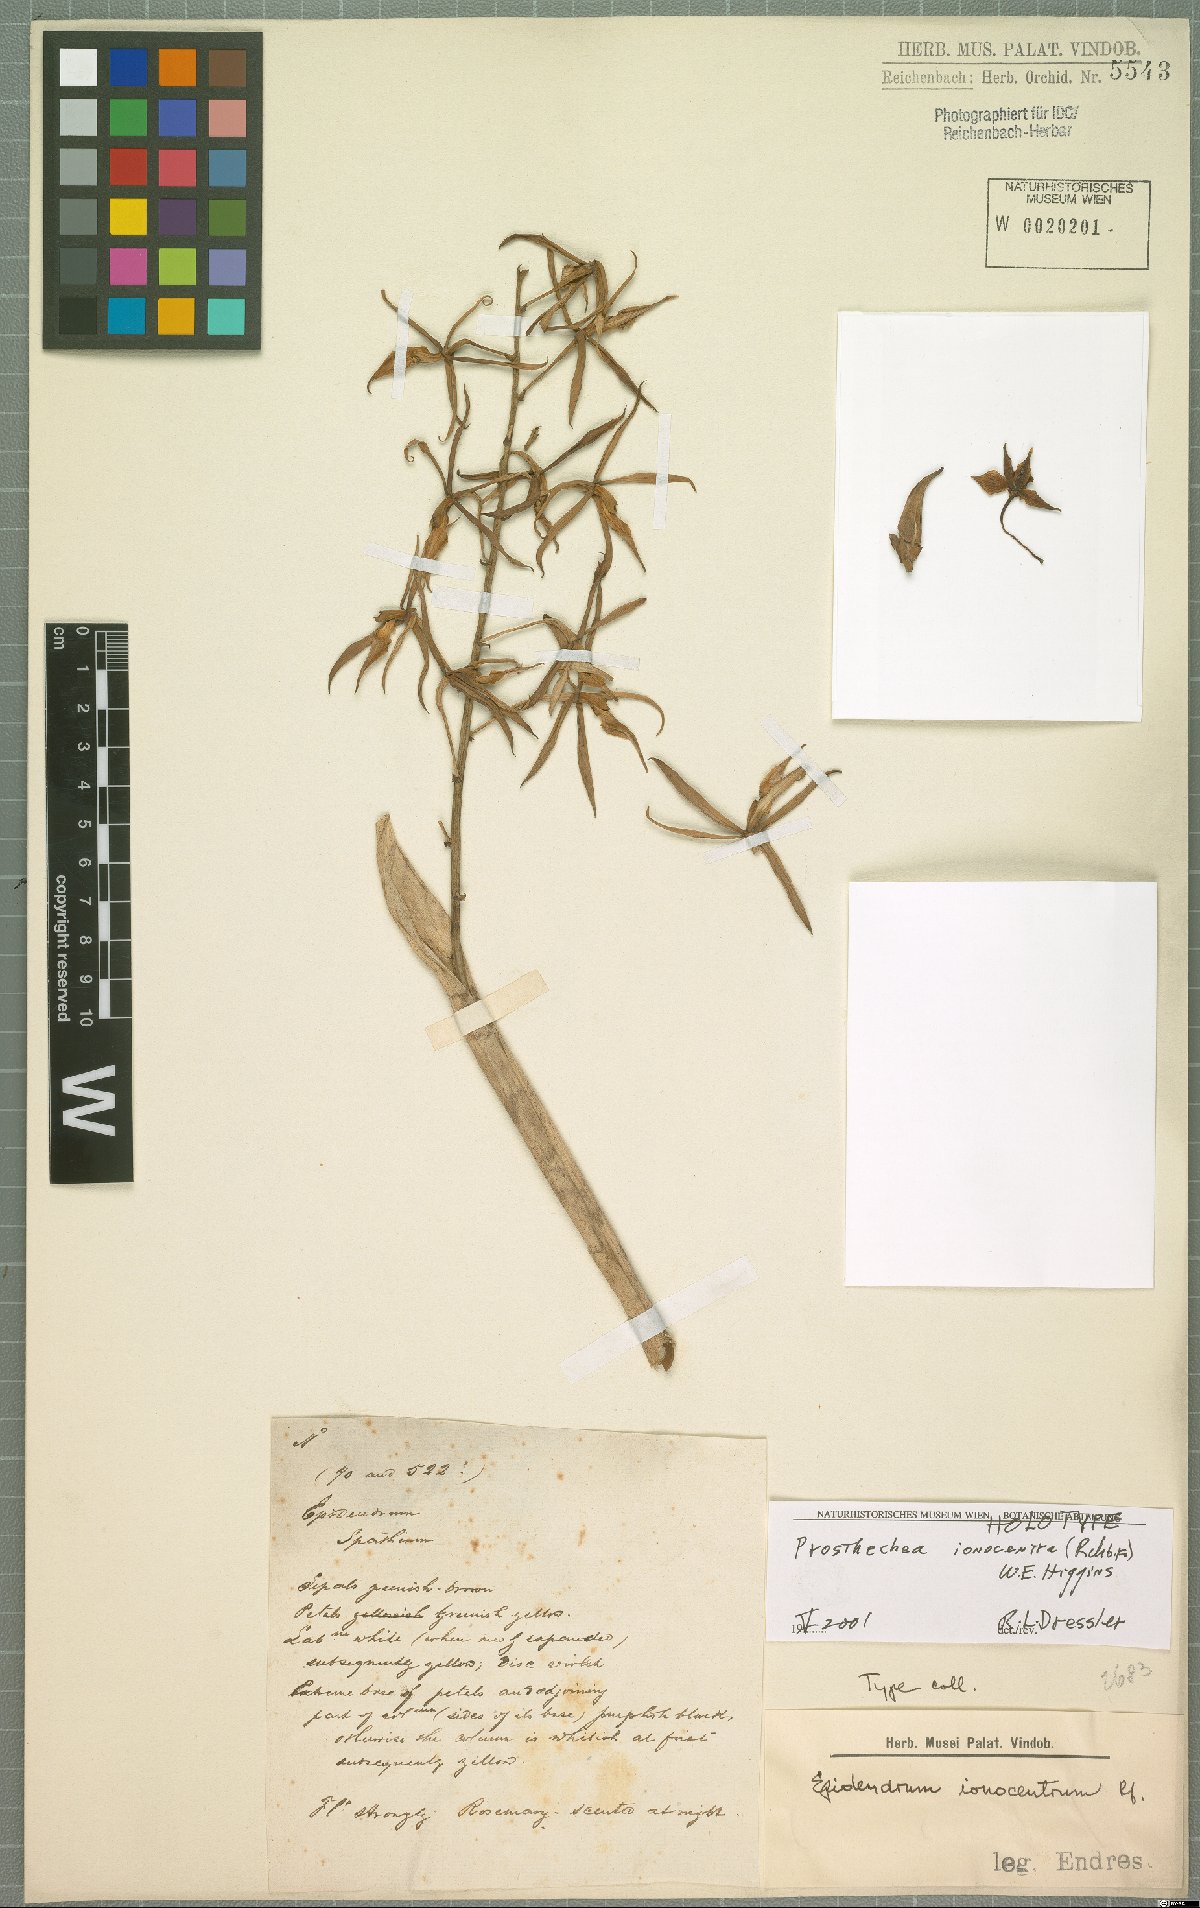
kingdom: Plantae
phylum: Tracheophyta
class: Liliopsida
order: Asparagales
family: Orchidaceae
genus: Prosthechea
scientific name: Prosthechea ionocentra
